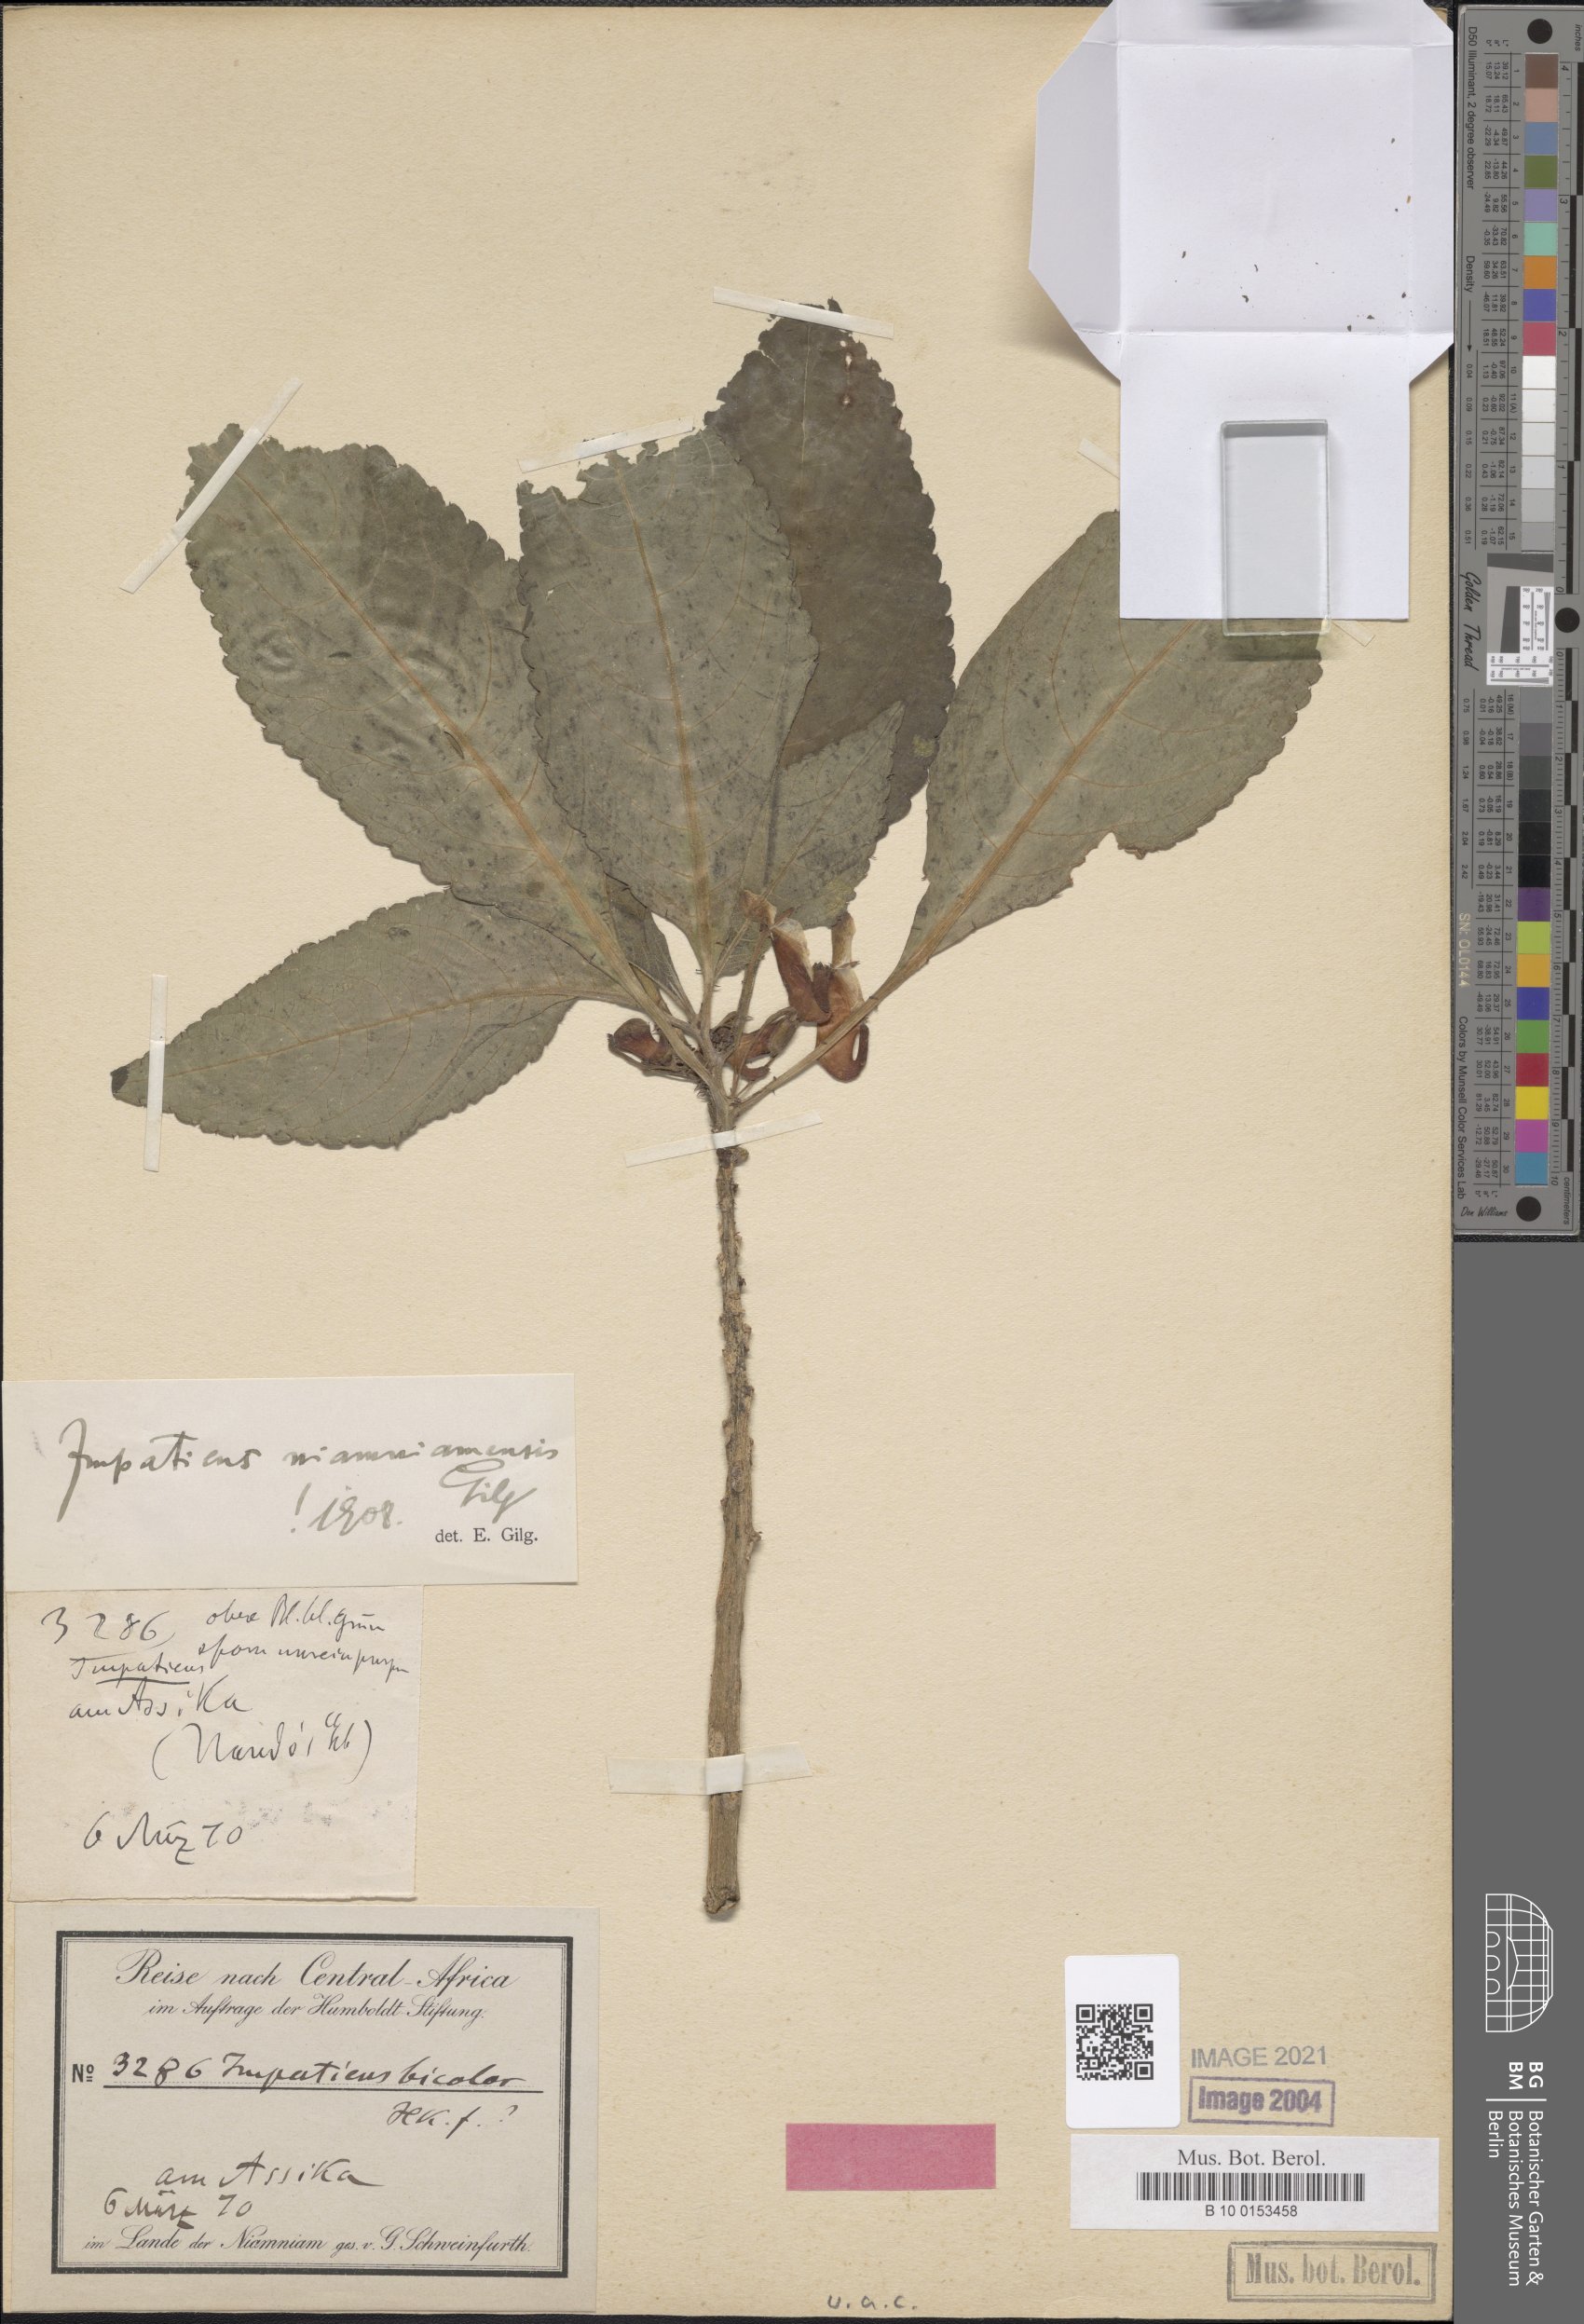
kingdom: Plantae
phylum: Tracheophyta
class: Magnoliopsida
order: Ericales
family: Balsaminaceae
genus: Impatiens
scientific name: Impatiens niamniamensis
